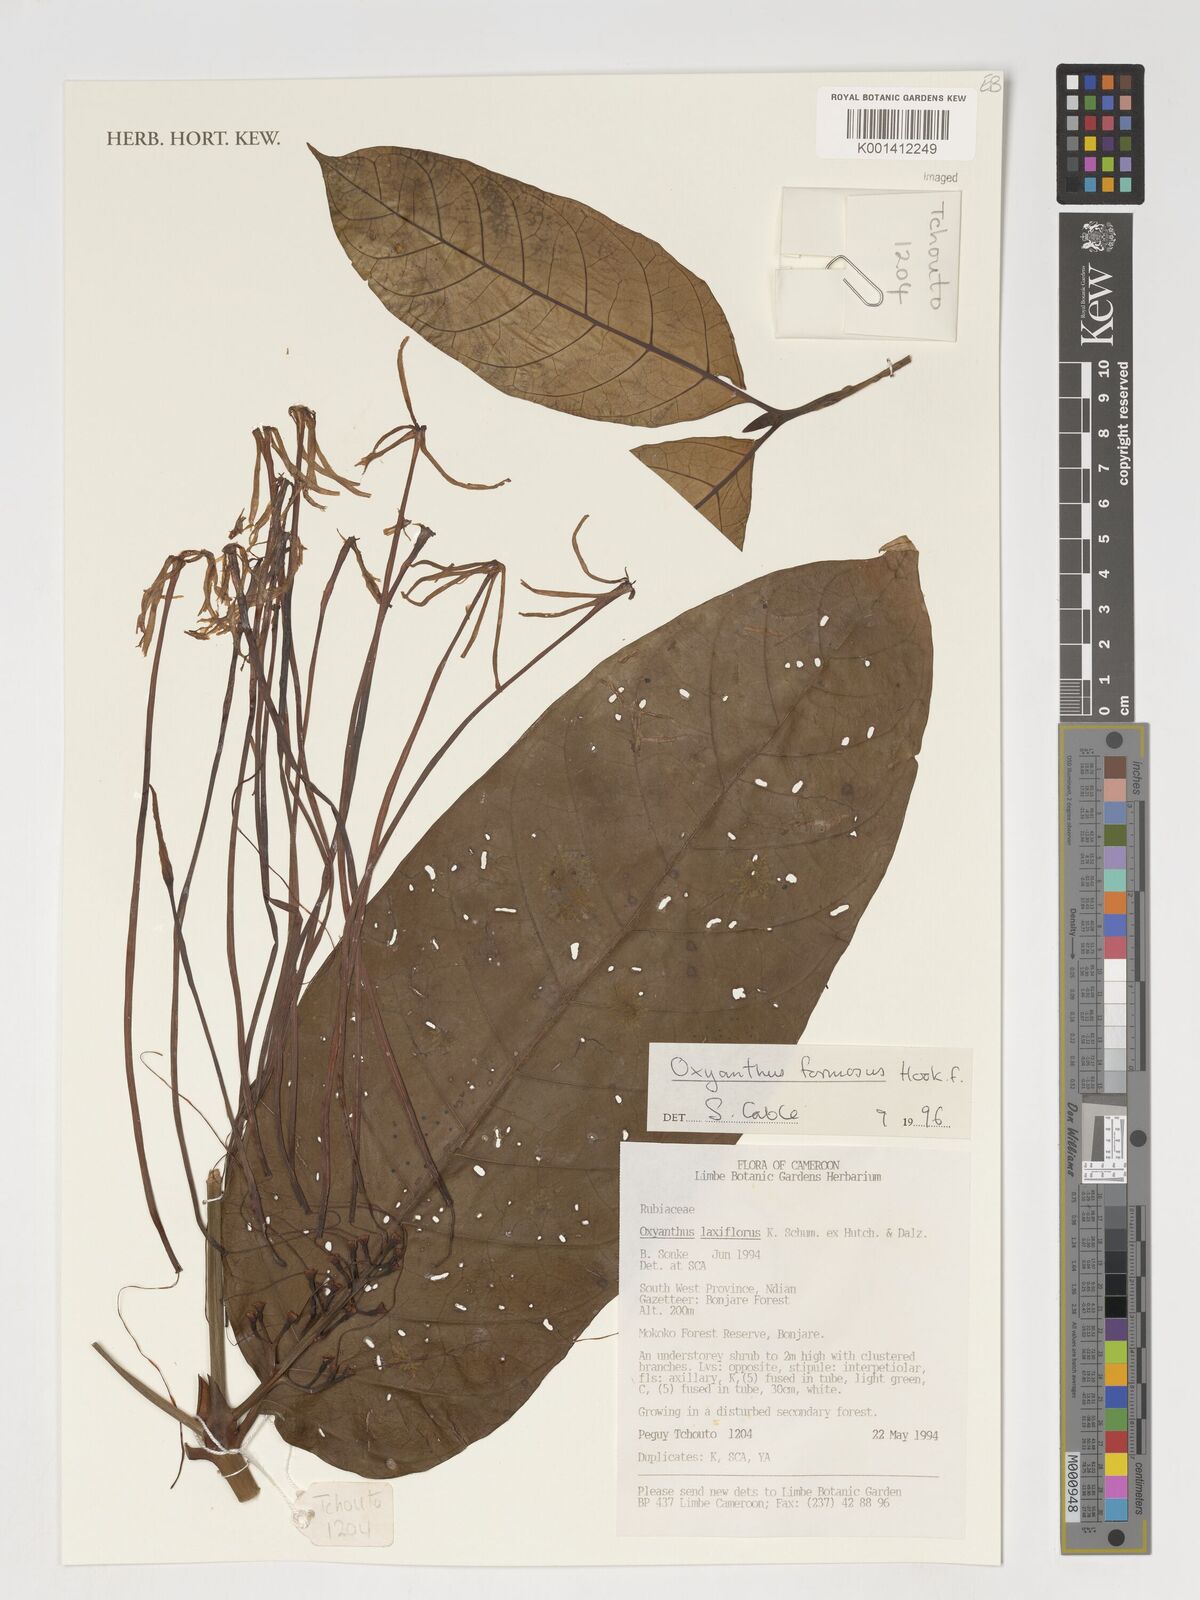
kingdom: Plantae
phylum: Tracheophyta
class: Magnoliopsida
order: Gentianales
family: Rubiaceae
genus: Oxyanthus
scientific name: Oxyanthus laxiflorus
